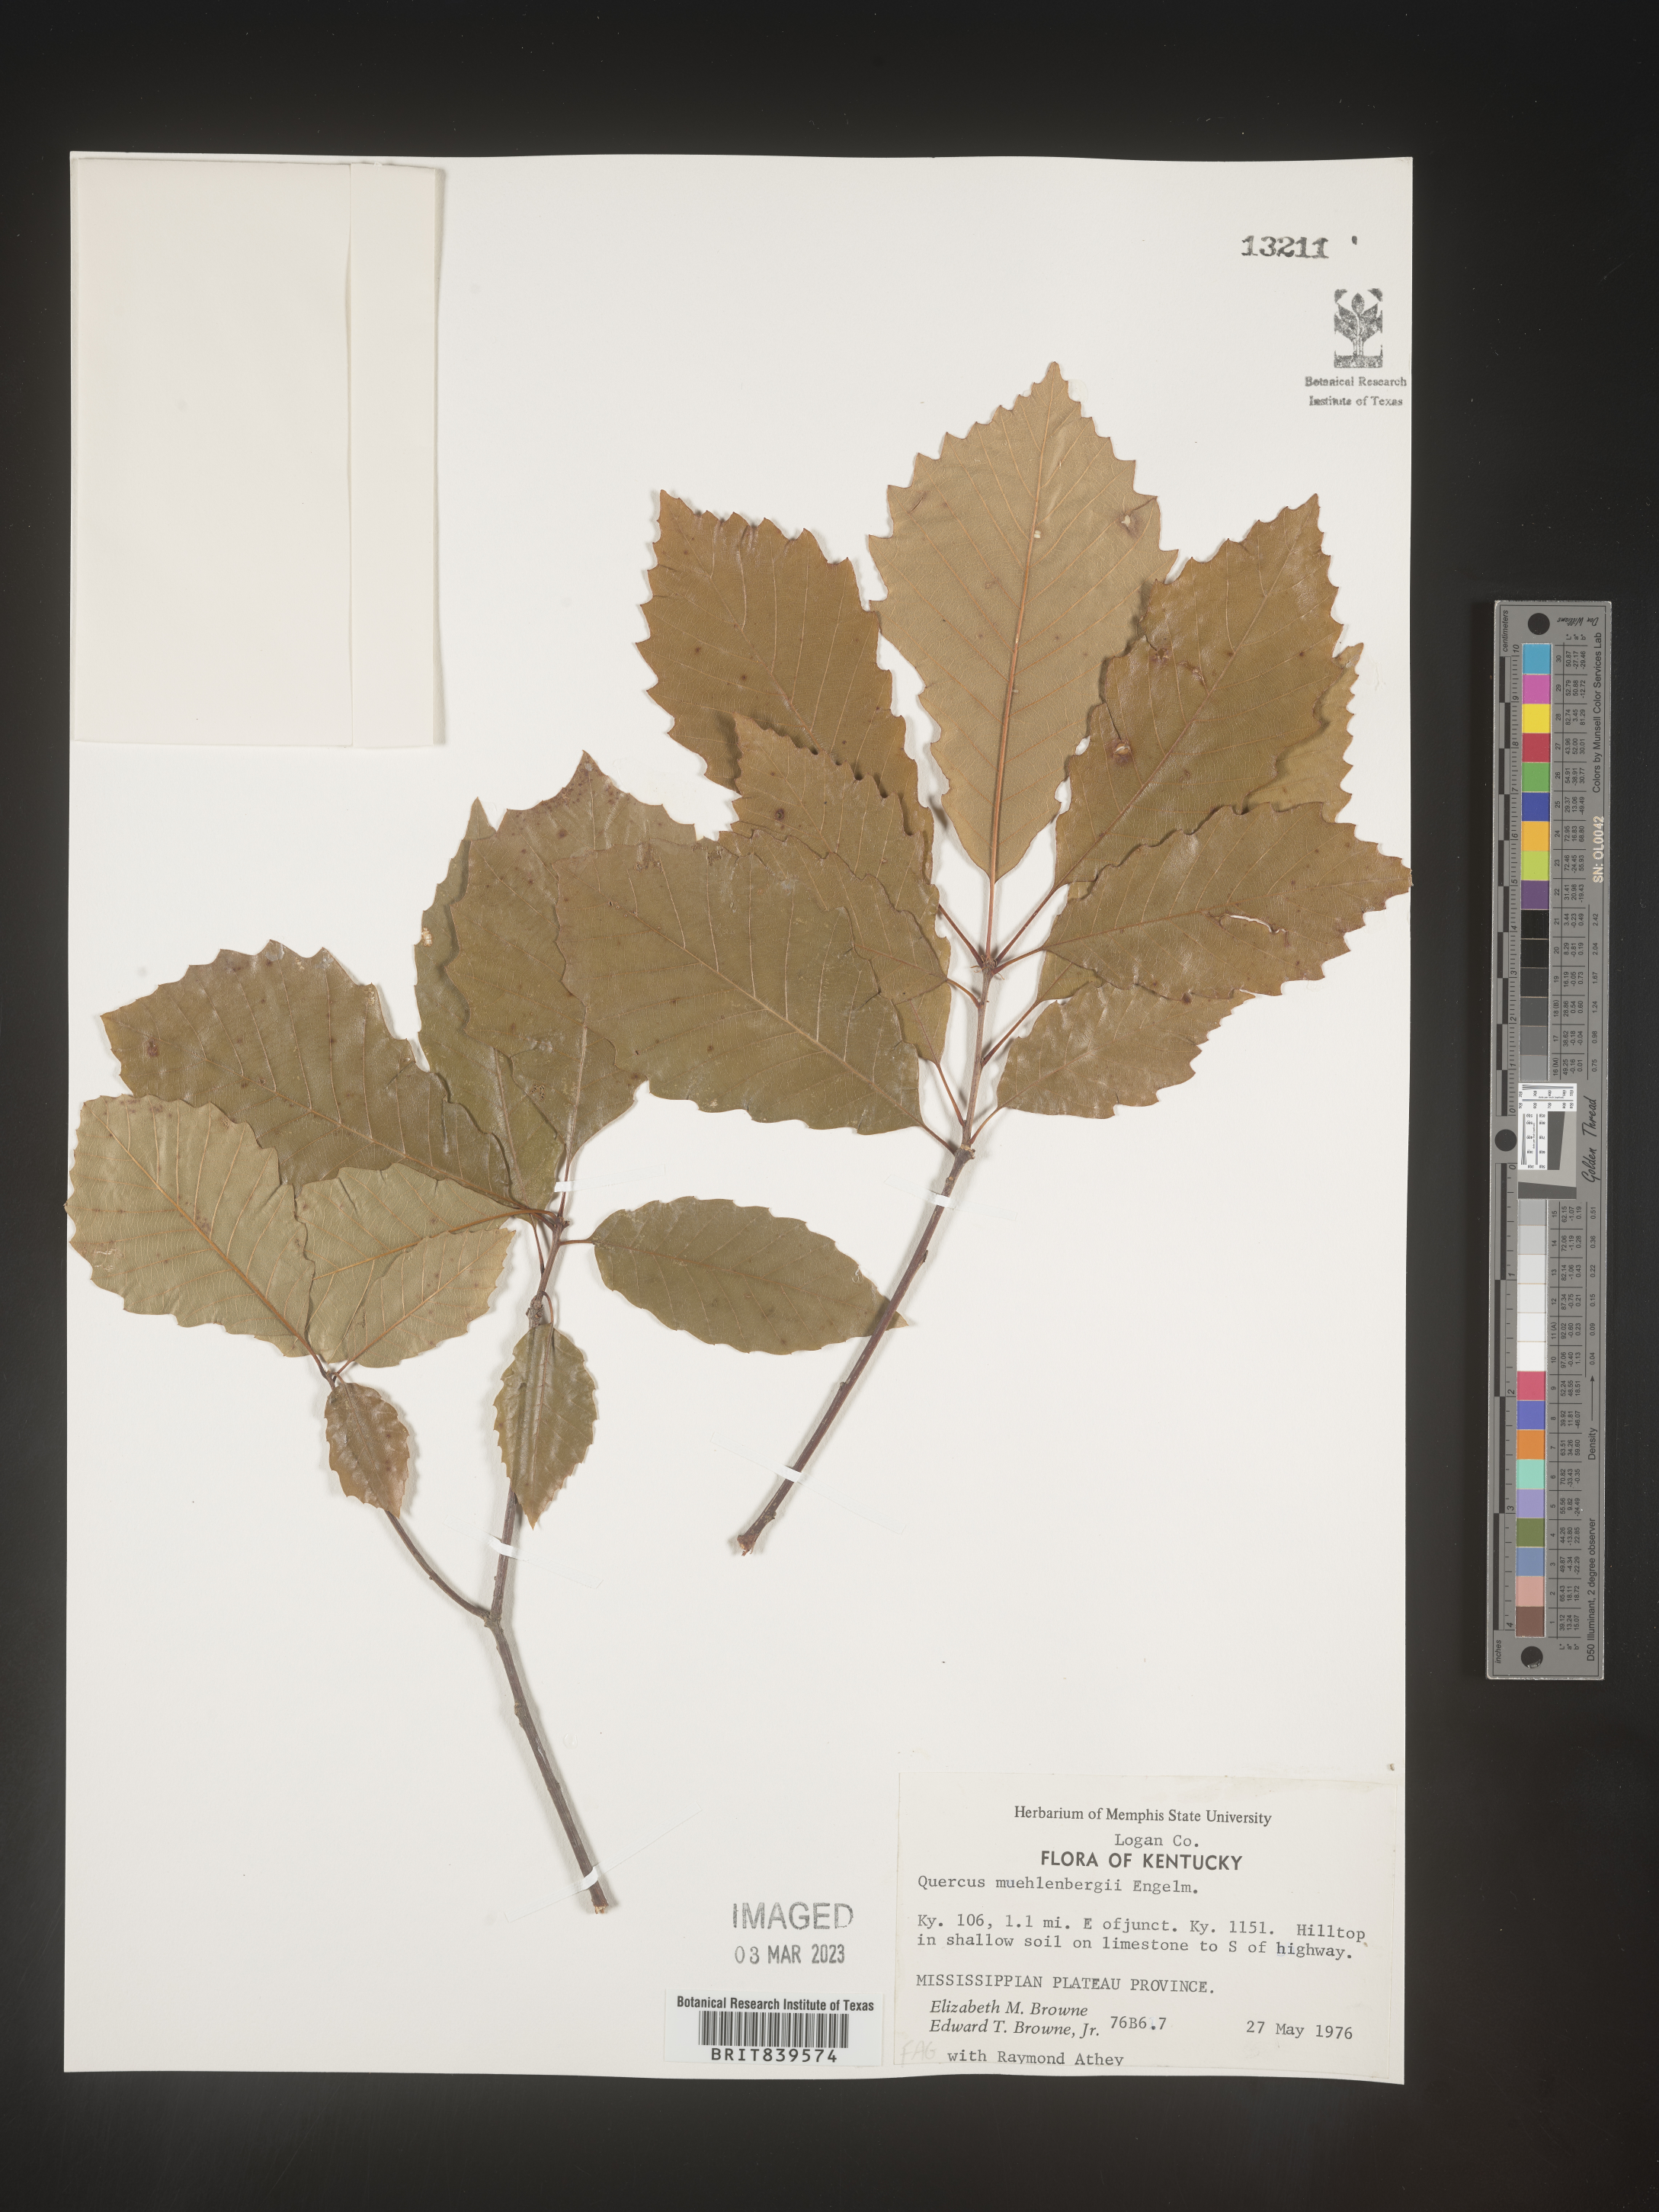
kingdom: Plantae
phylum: Tracheophyta
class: Magnoliopsida
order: Fagales
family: Fagaceae
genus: Quercus
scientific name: Quercus muehlenbergii
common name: Chinkapin oak
